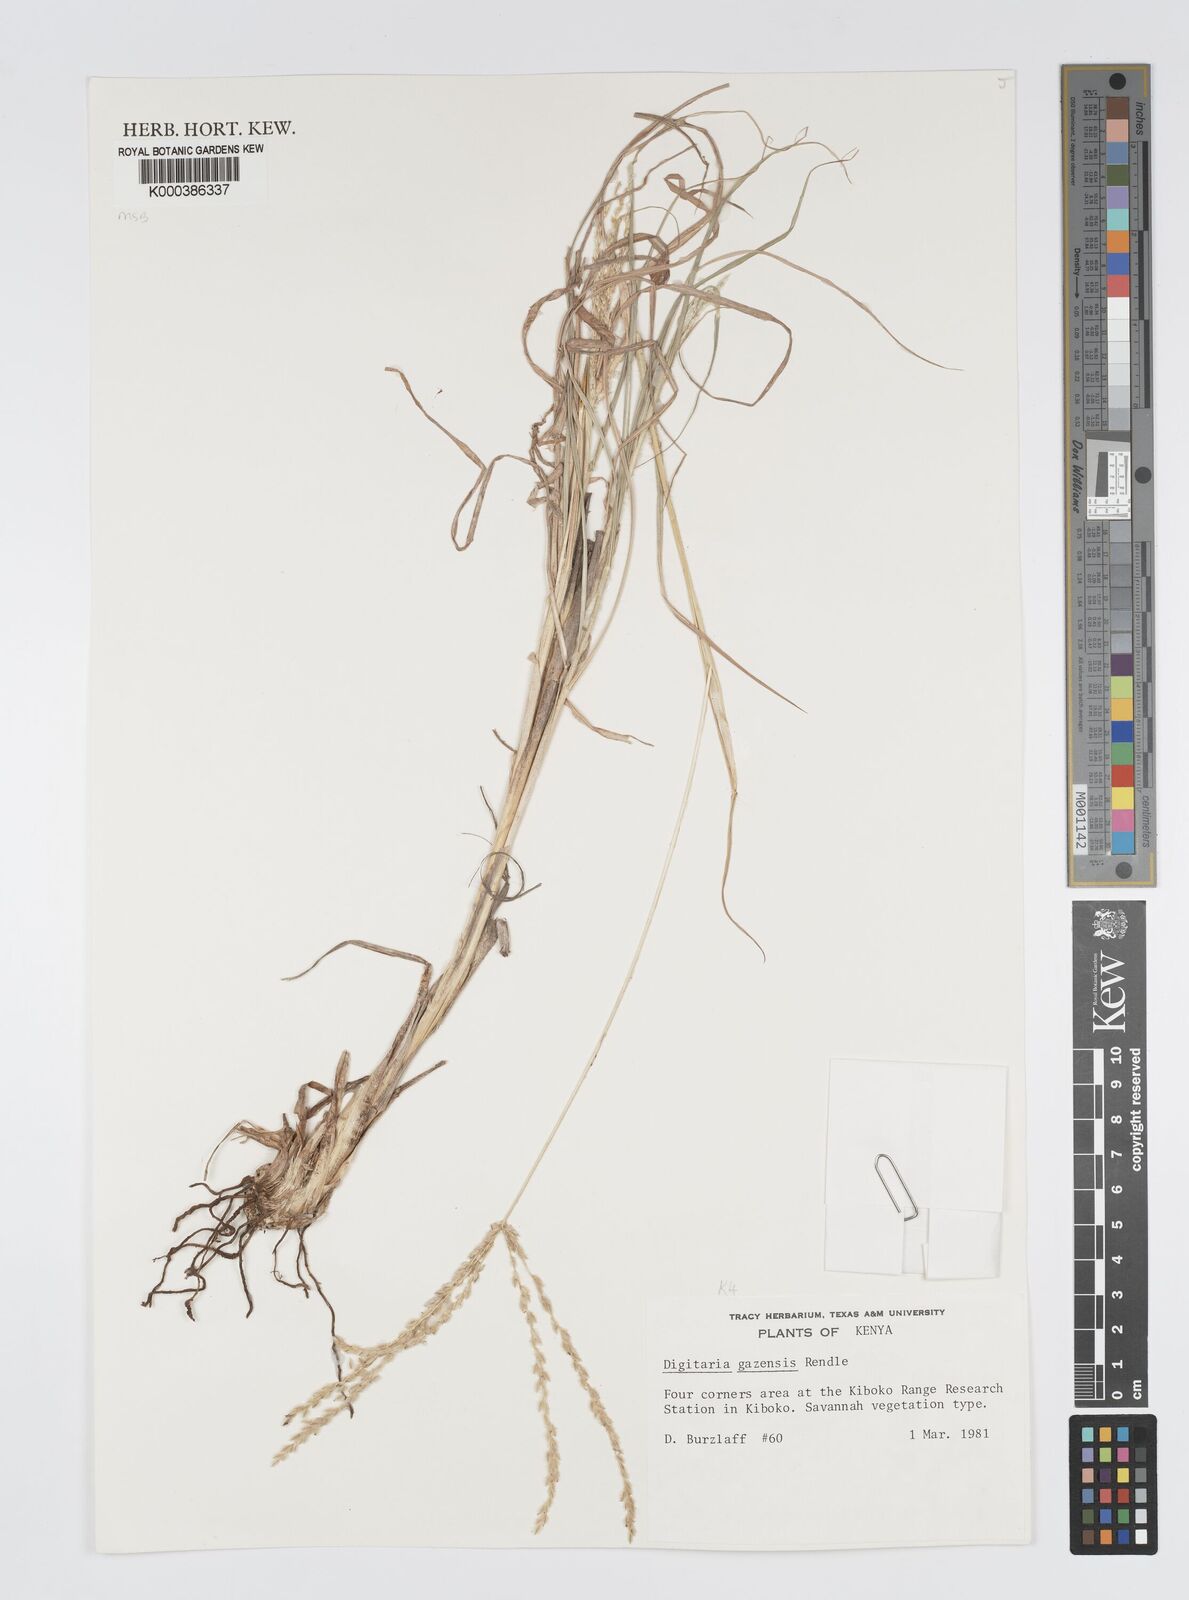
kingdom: Plantae
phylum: Tracheophyta
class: Liliopsida
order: Poales
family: Poaceae
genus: Digitaria
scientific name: Digitaria macroblephara
